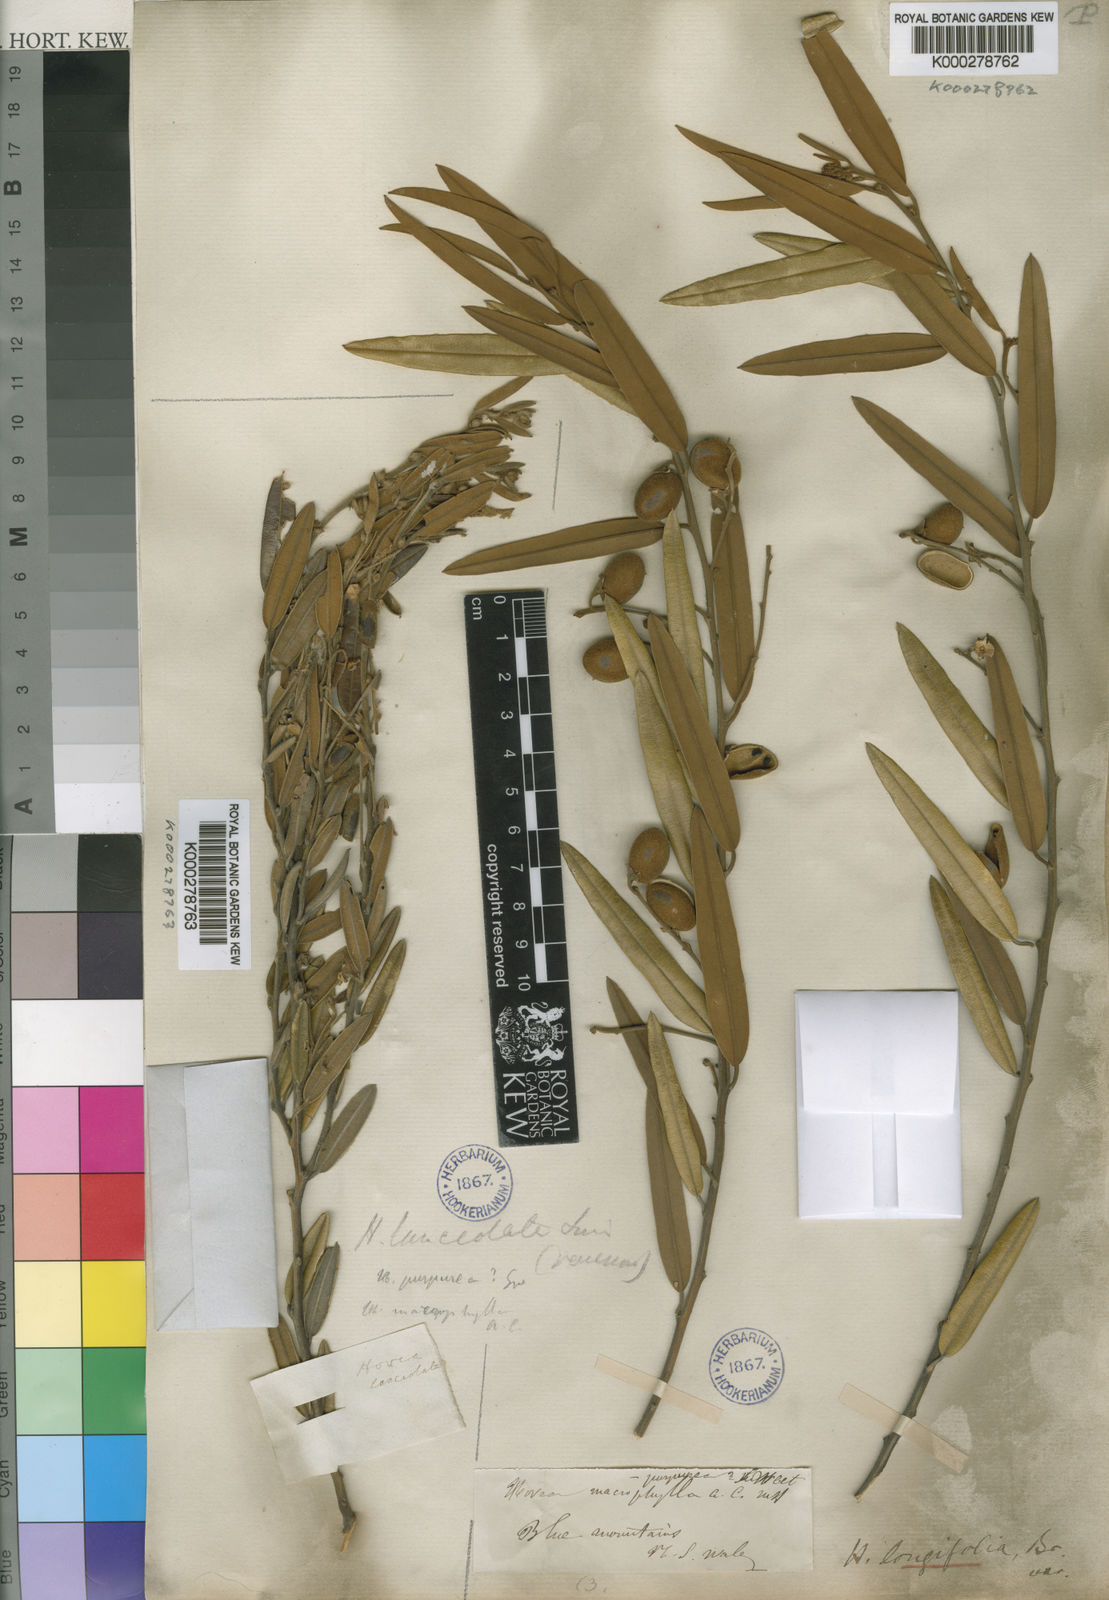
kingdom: Plantae
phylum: Tracheophyta
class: Magnoliopsida
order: Fabales
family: Fabaceae
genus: Hovea
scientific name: Hovea lanceolata
